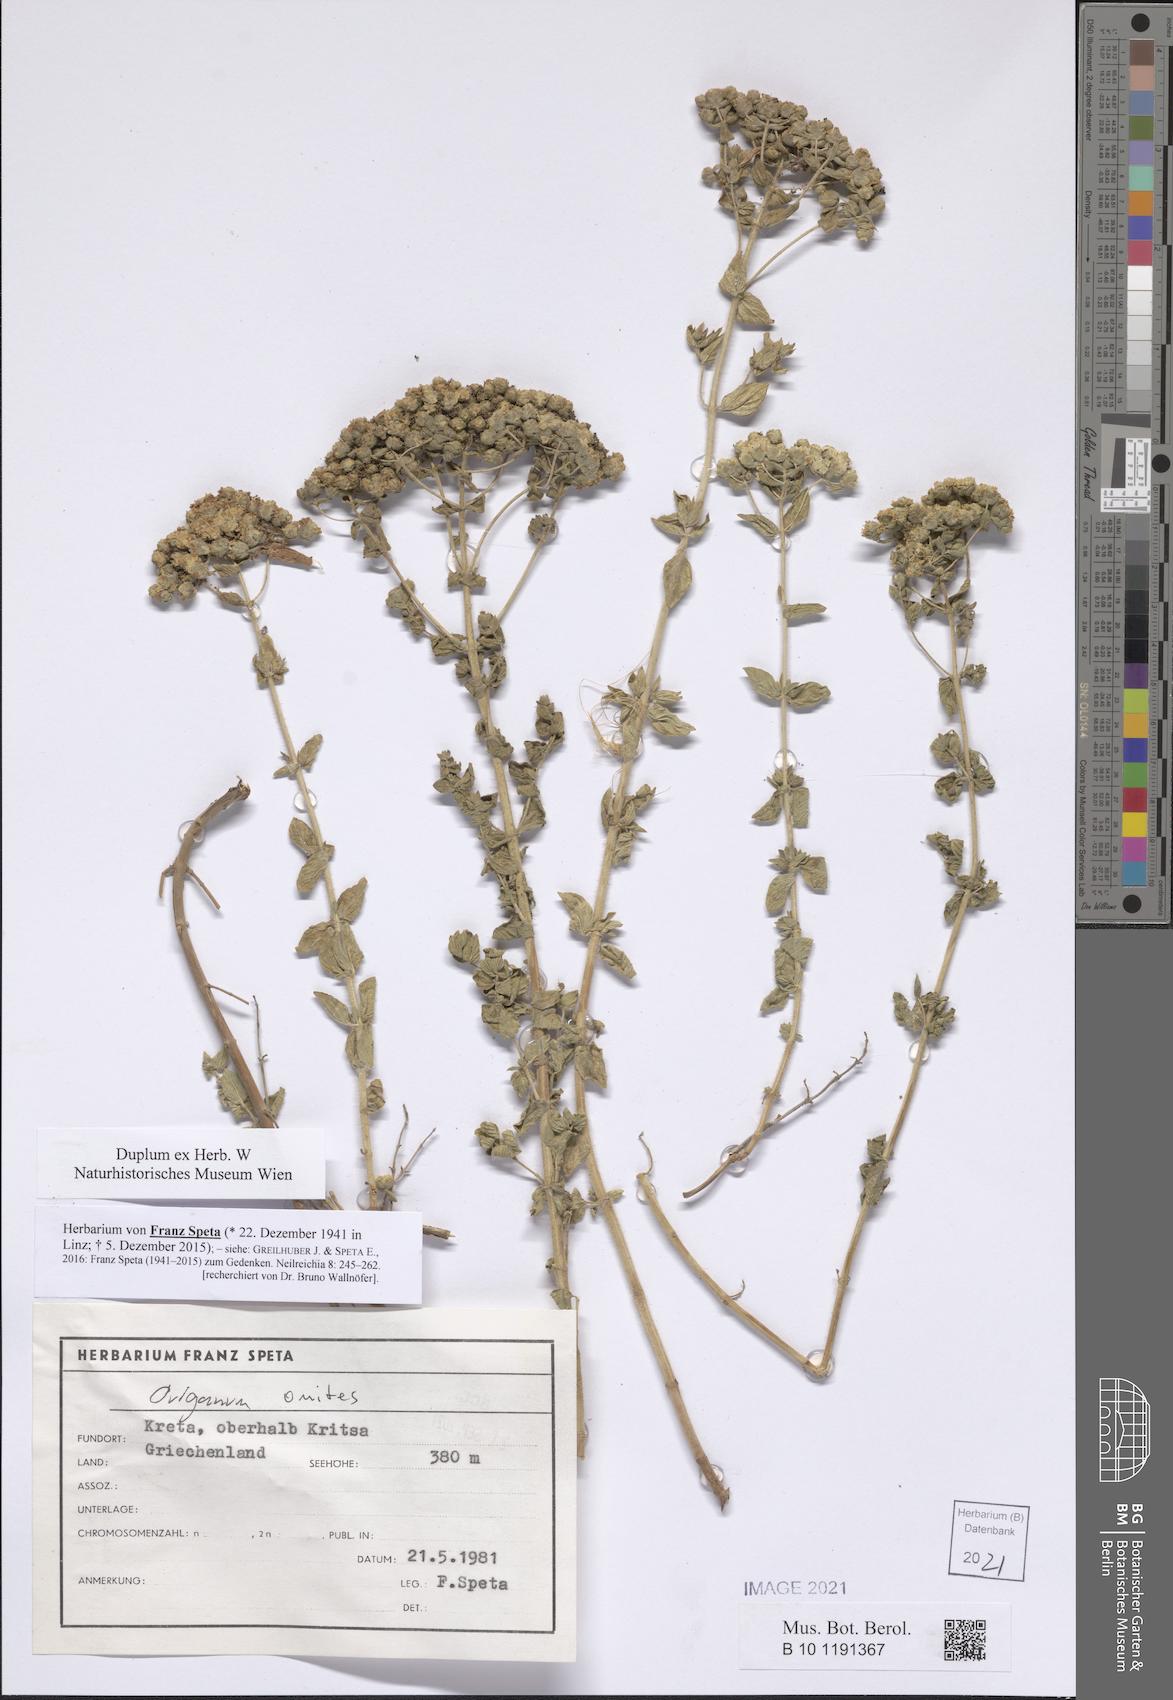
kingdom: Plantae
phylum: Tracheophyta
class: Magnoliopsida
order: Lamiales
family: Lamiaceae
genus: Origanum
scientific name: Origanum onites
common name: Turkish oregano
